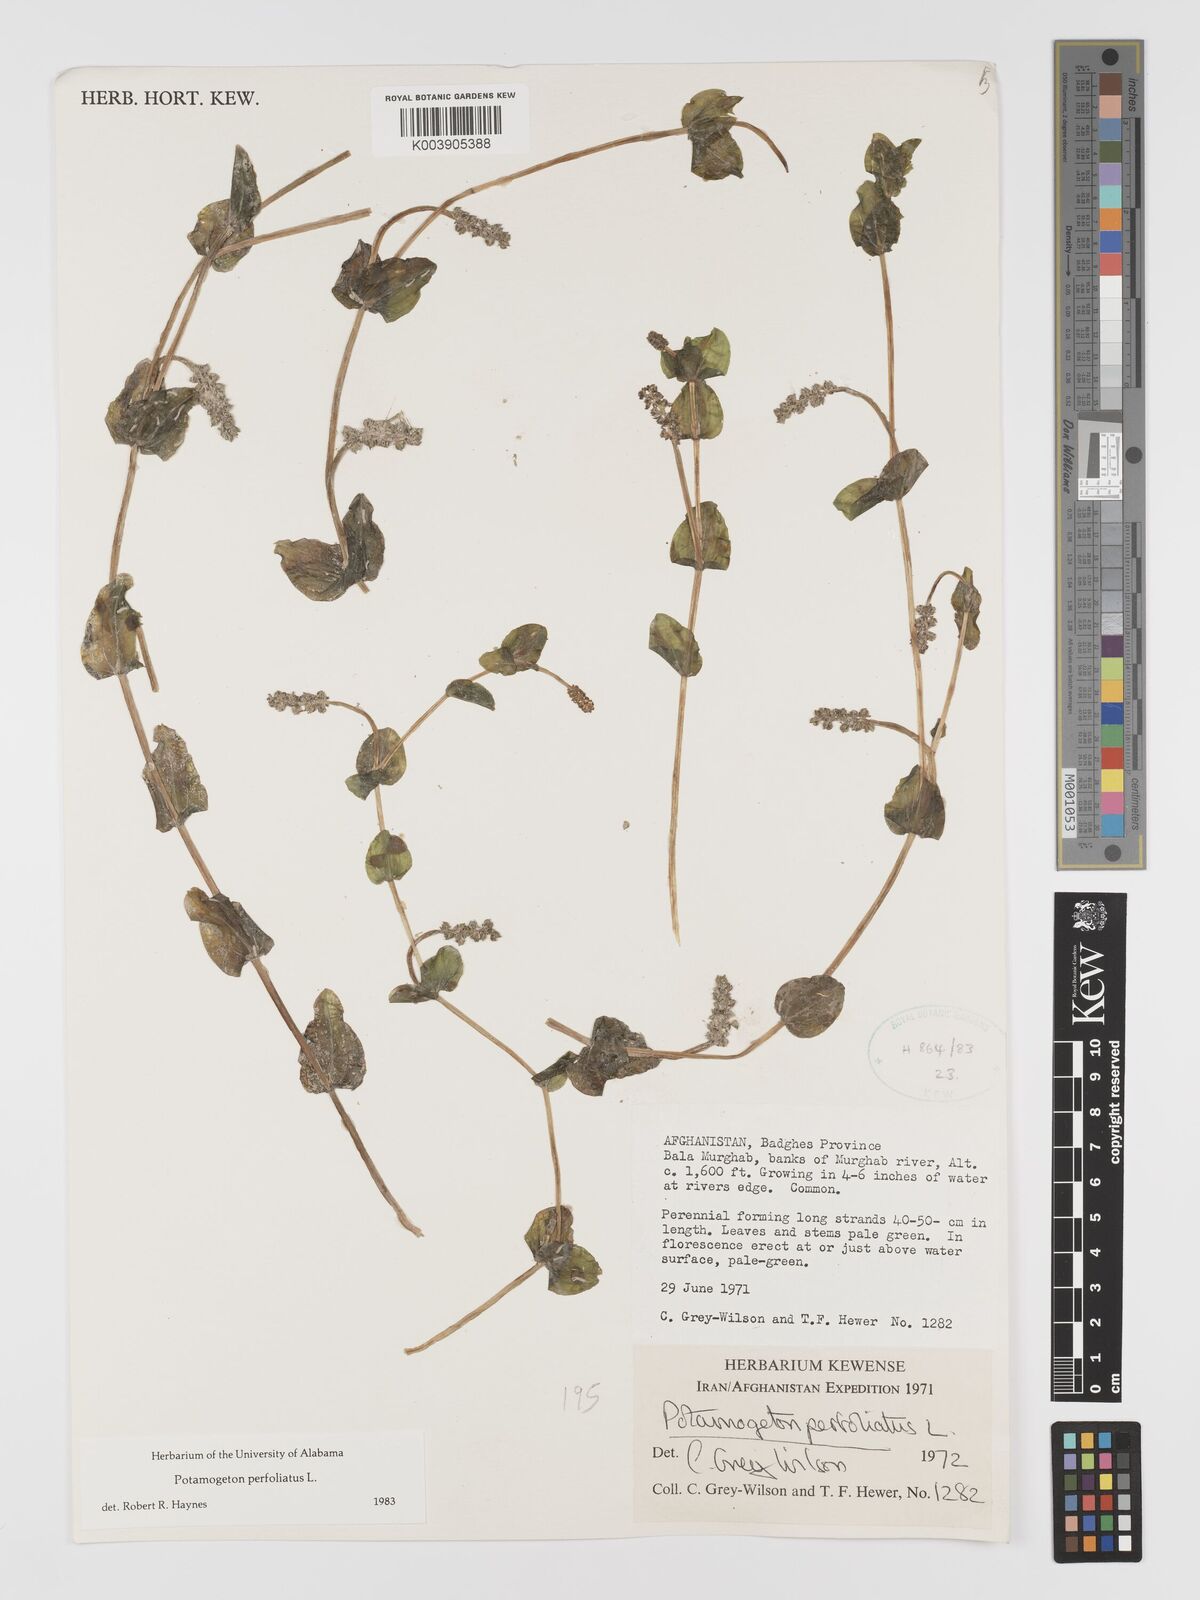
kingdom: Plantae
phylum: Tracheophyta
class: Liliopsida
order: Alismatales
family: Potamogetonaceae
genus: Potamogeton
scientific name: Potamogeton perfoliatus
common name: Perfoliate pondweed
